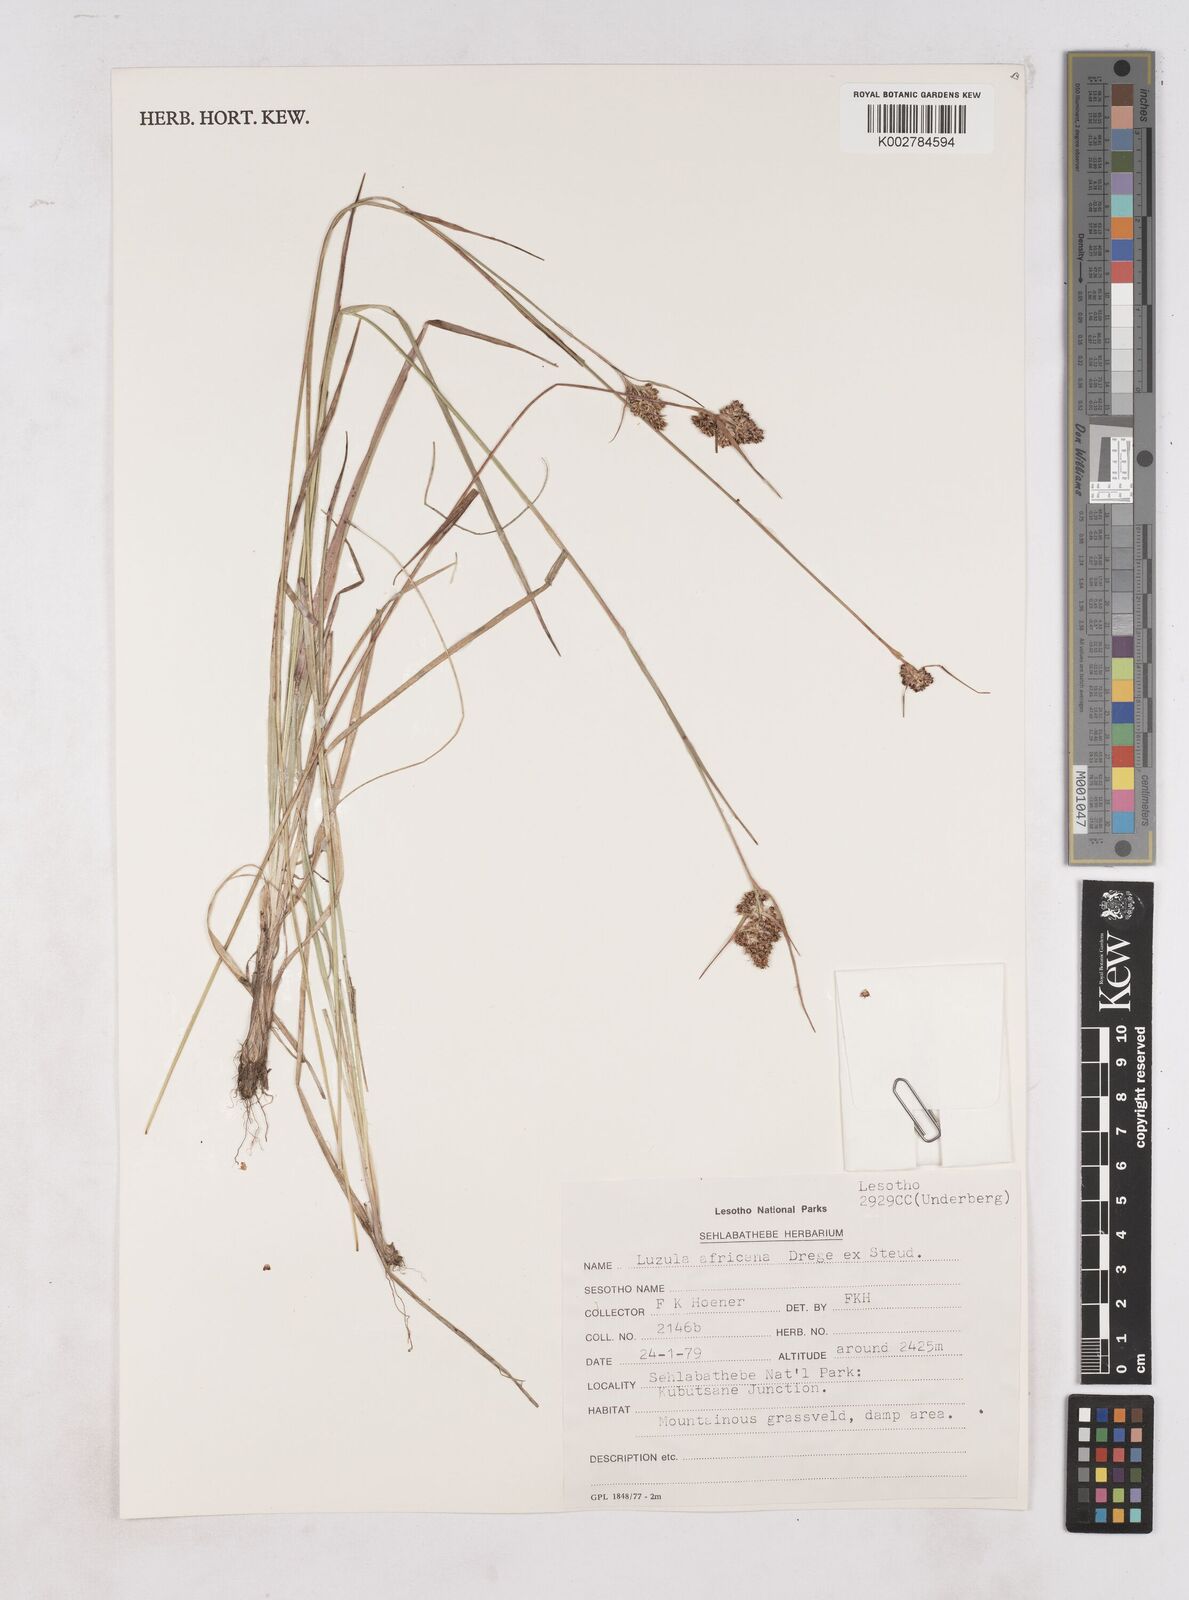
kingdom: Plantae
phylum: Tracheophyta
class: Liliopsida
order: Poales
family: Juncaceae
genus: Luzula
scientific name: Luzula africana
